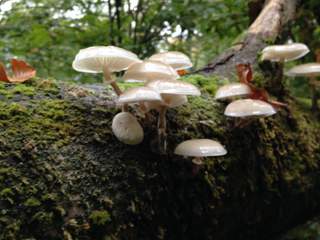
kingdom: Fungi
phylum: Basidiomycota
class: Agaricomycetes
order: Agaricales
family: Physalacriaceae
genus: Mucidula
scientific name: Mucidula mucida
